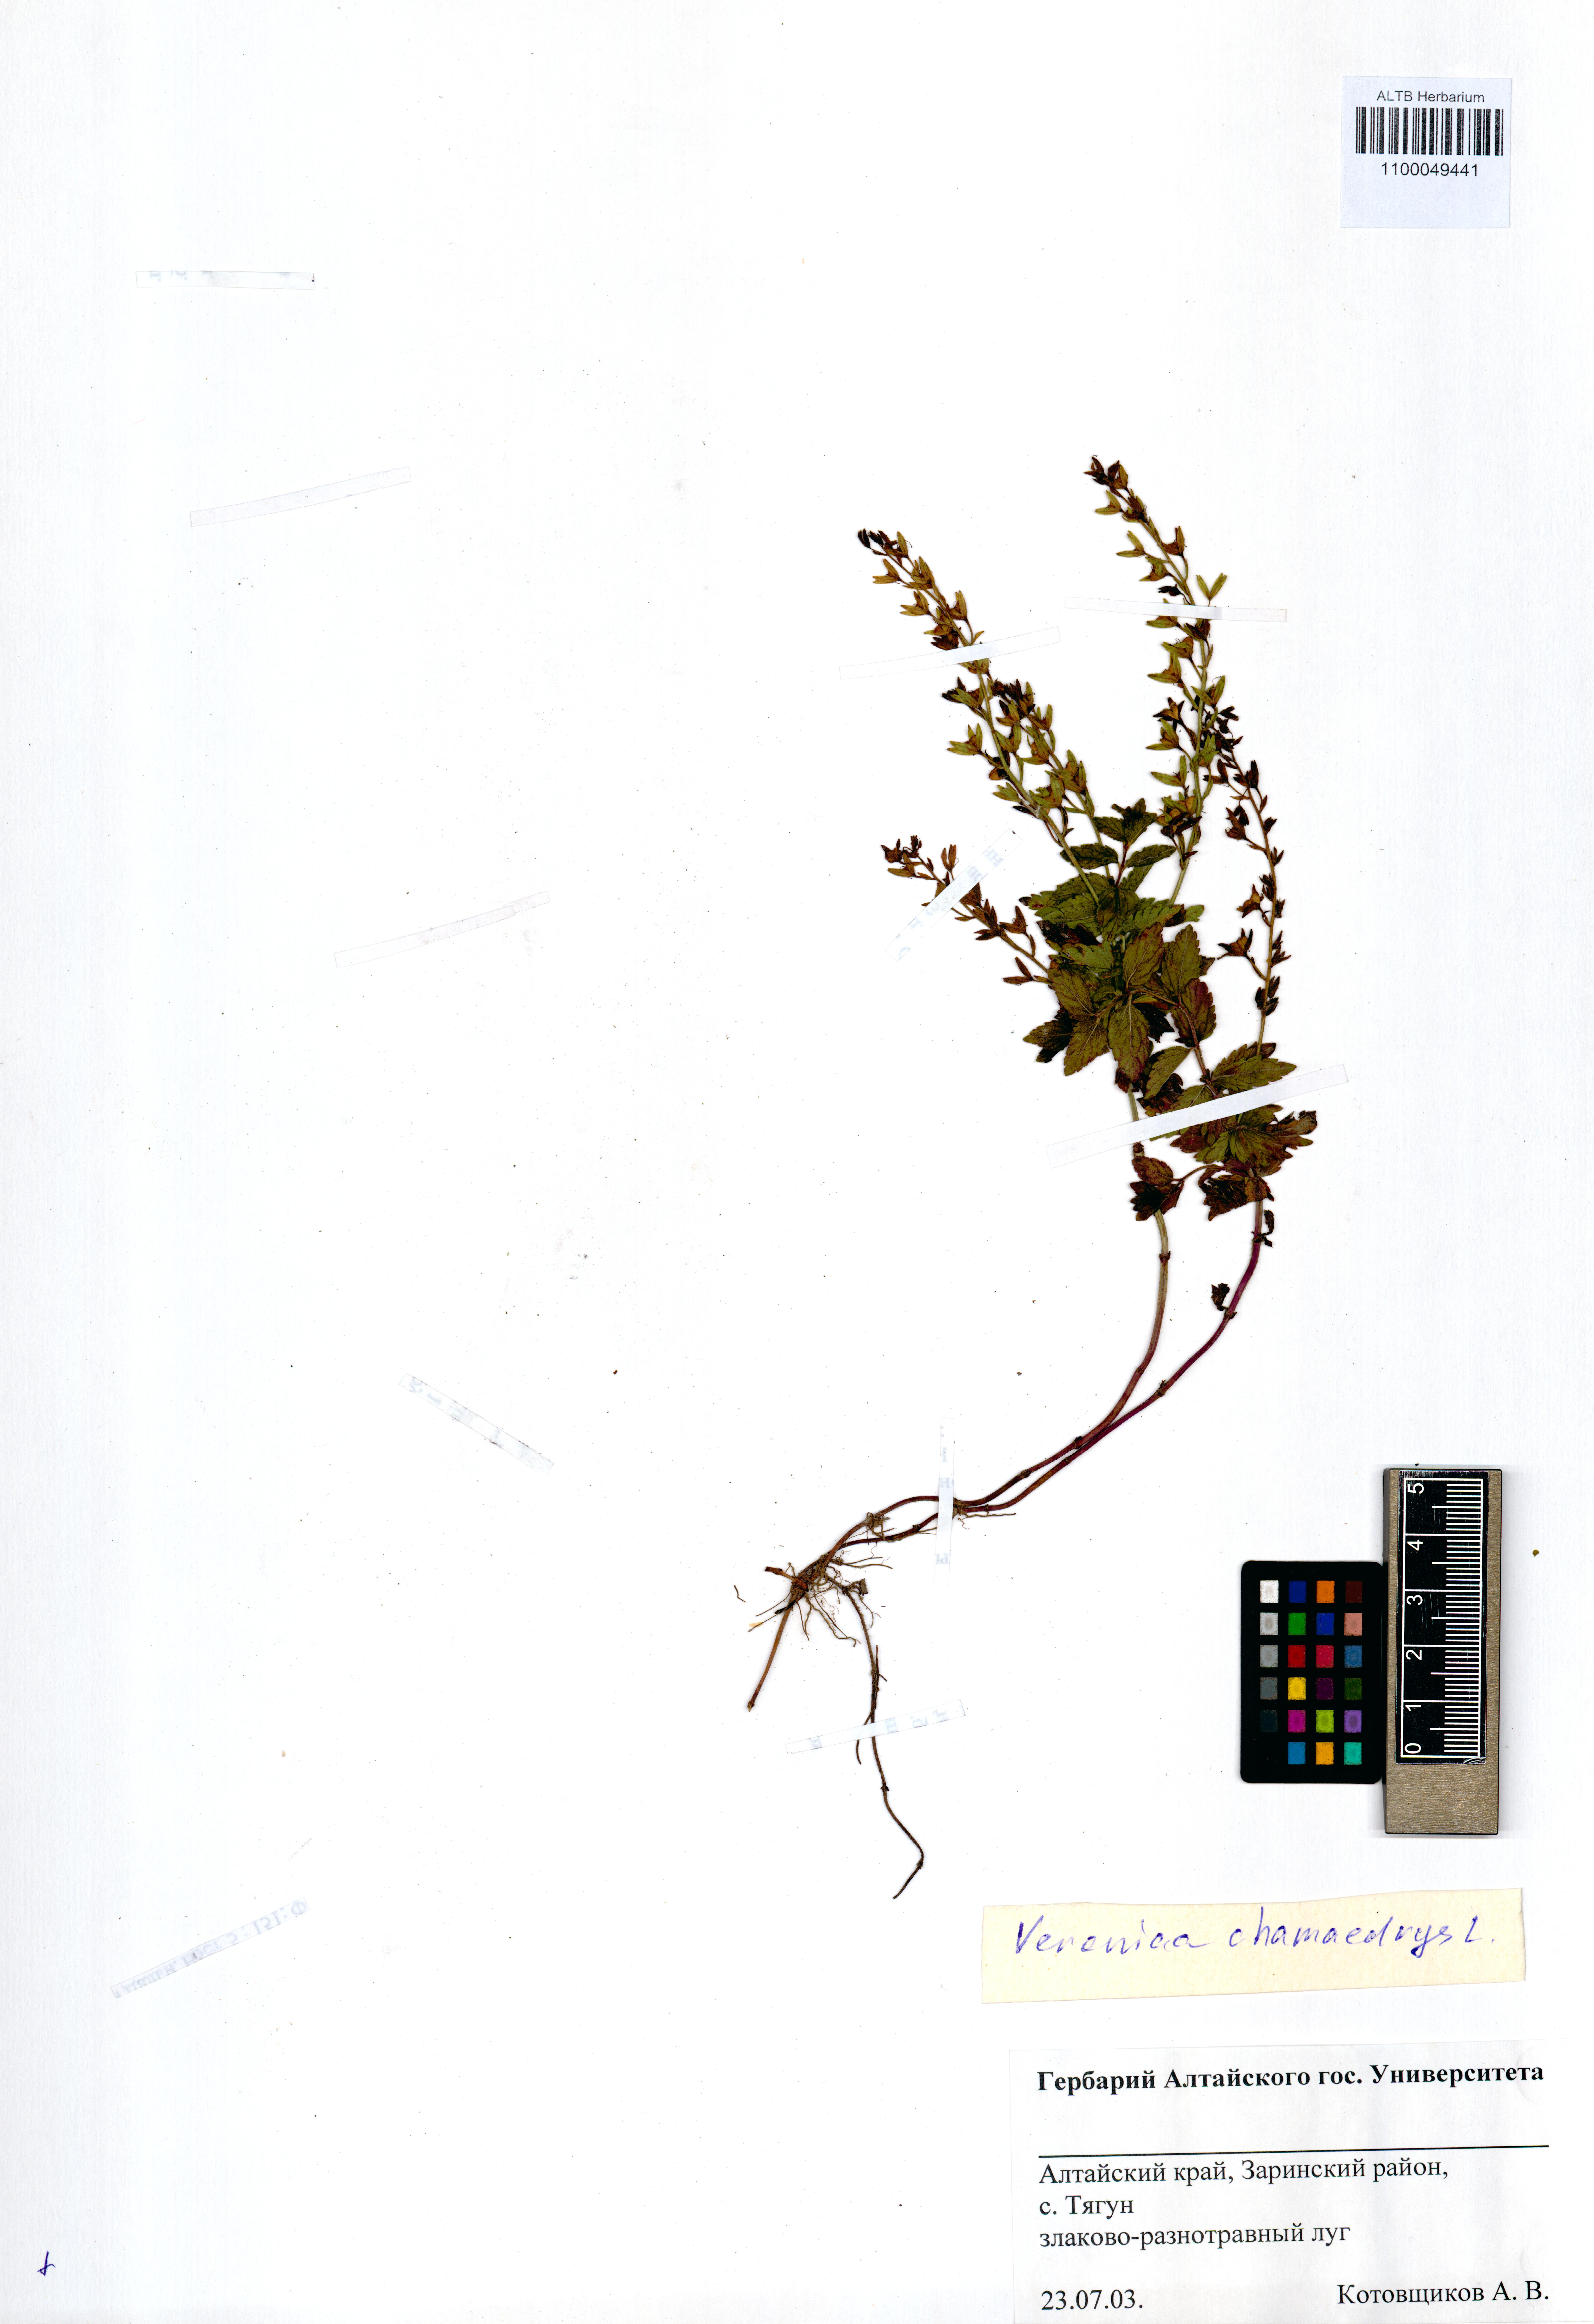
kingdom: Plantae
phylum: Tracheophyta
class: Magnoliopsida
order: Lamiales
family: Plantaginaceae
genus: Veronica
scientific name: Veronica chamaedrys
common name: Germander speedwell
